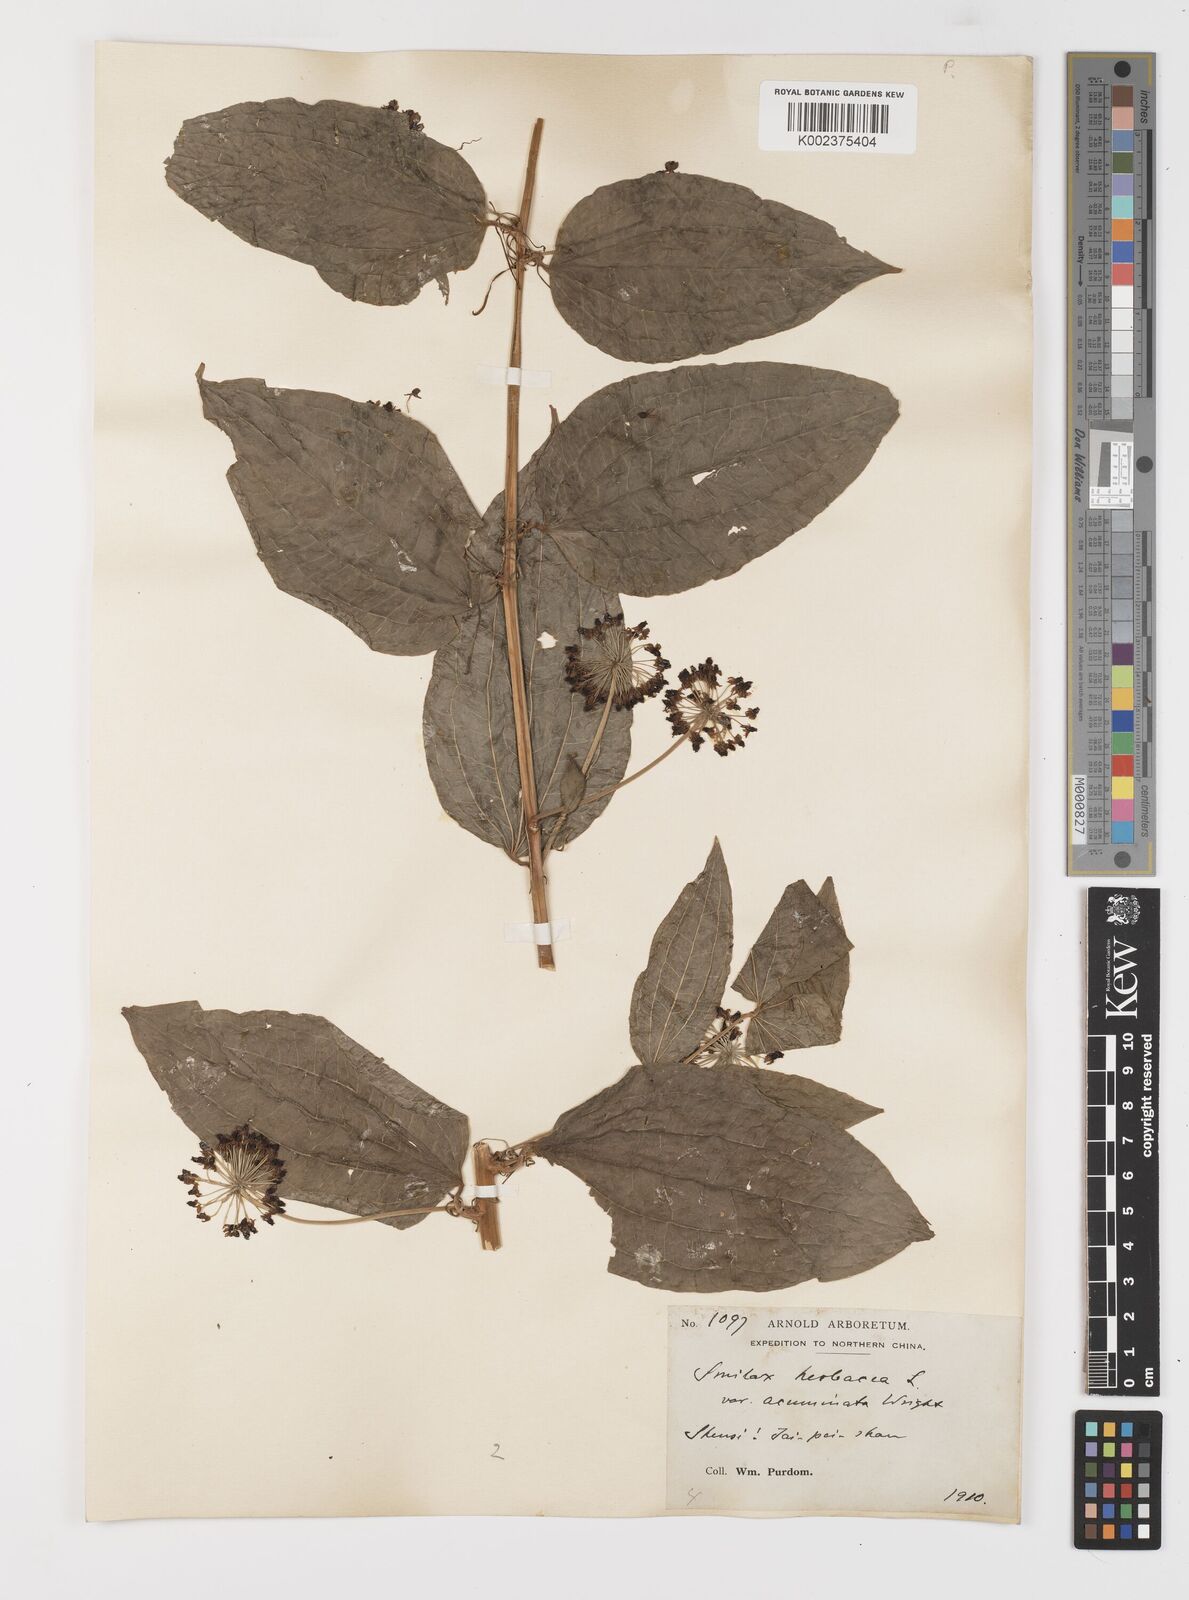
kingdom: Plantae
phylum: Tracheophyta
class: Liliopsida
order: Liliales
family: Smilacaceae
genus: Smilax
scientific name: Smilax nipponica
